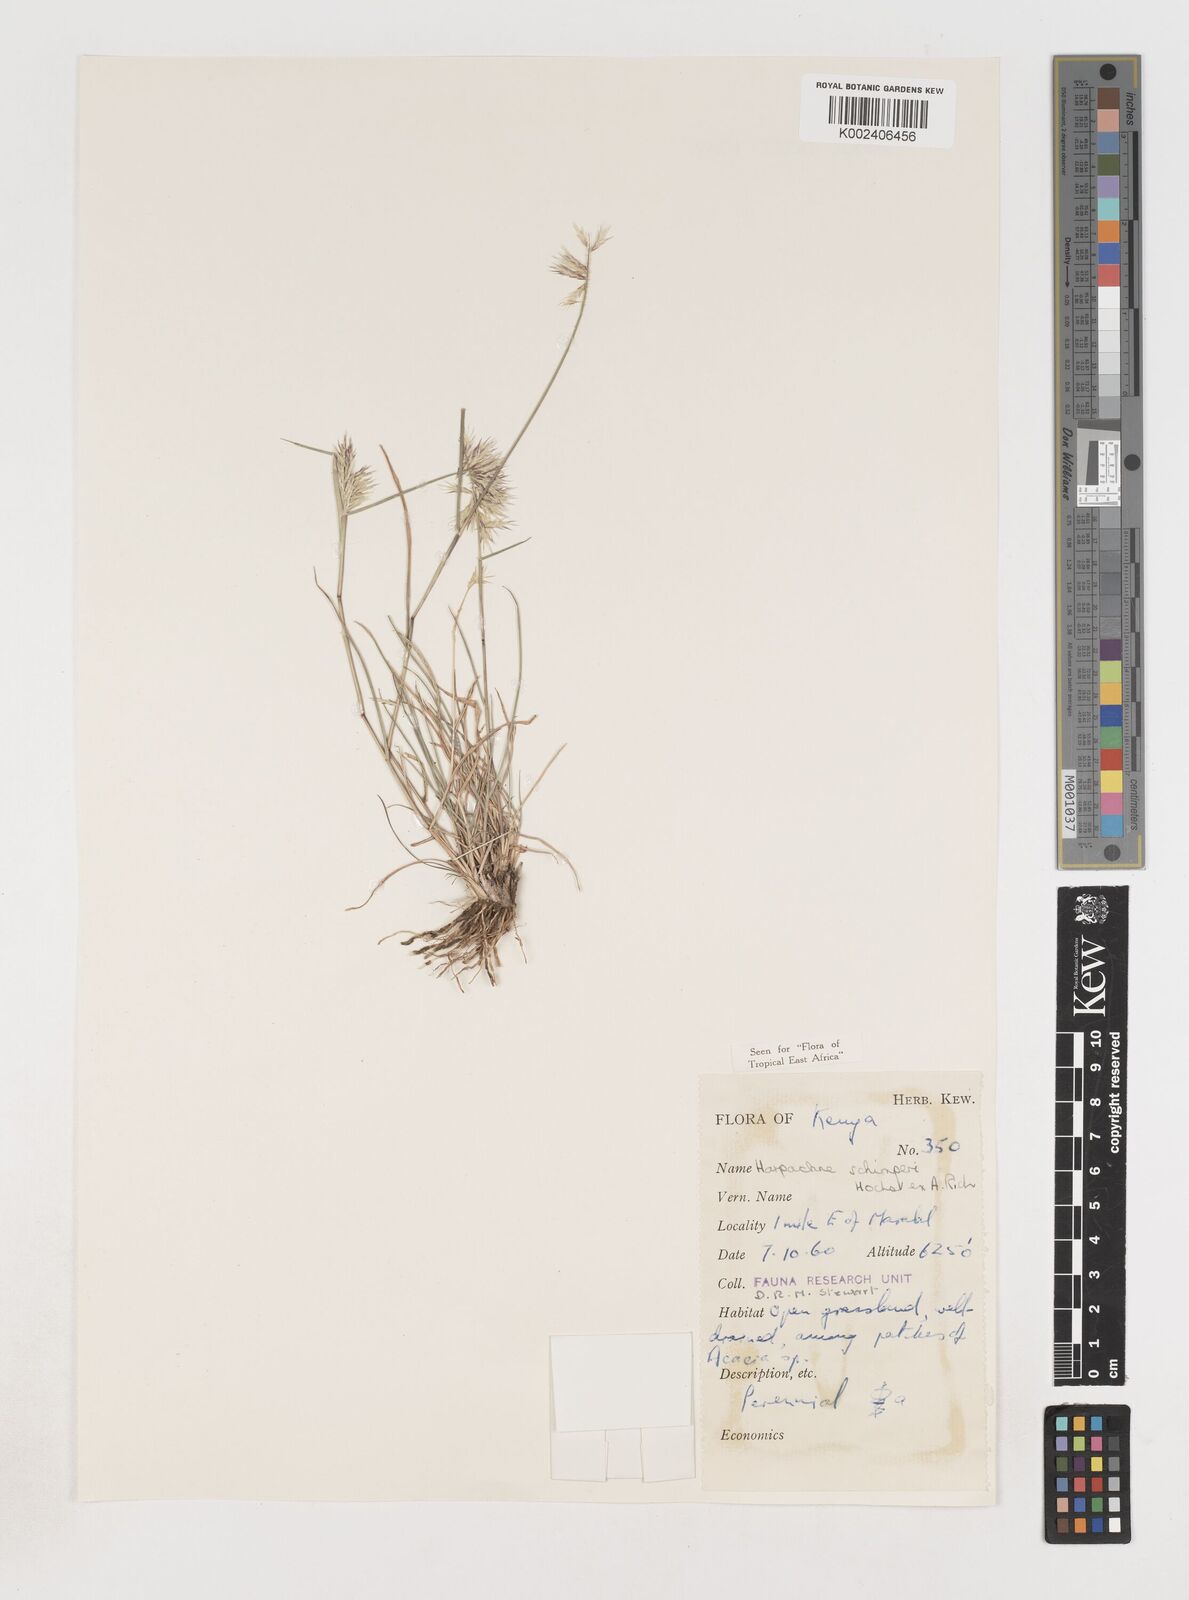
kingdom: Plantae
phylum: Tracheophyta
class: Liliopsida
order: Poales
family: Poaceae
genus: Harpachne
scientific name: Harpachne schimperi
